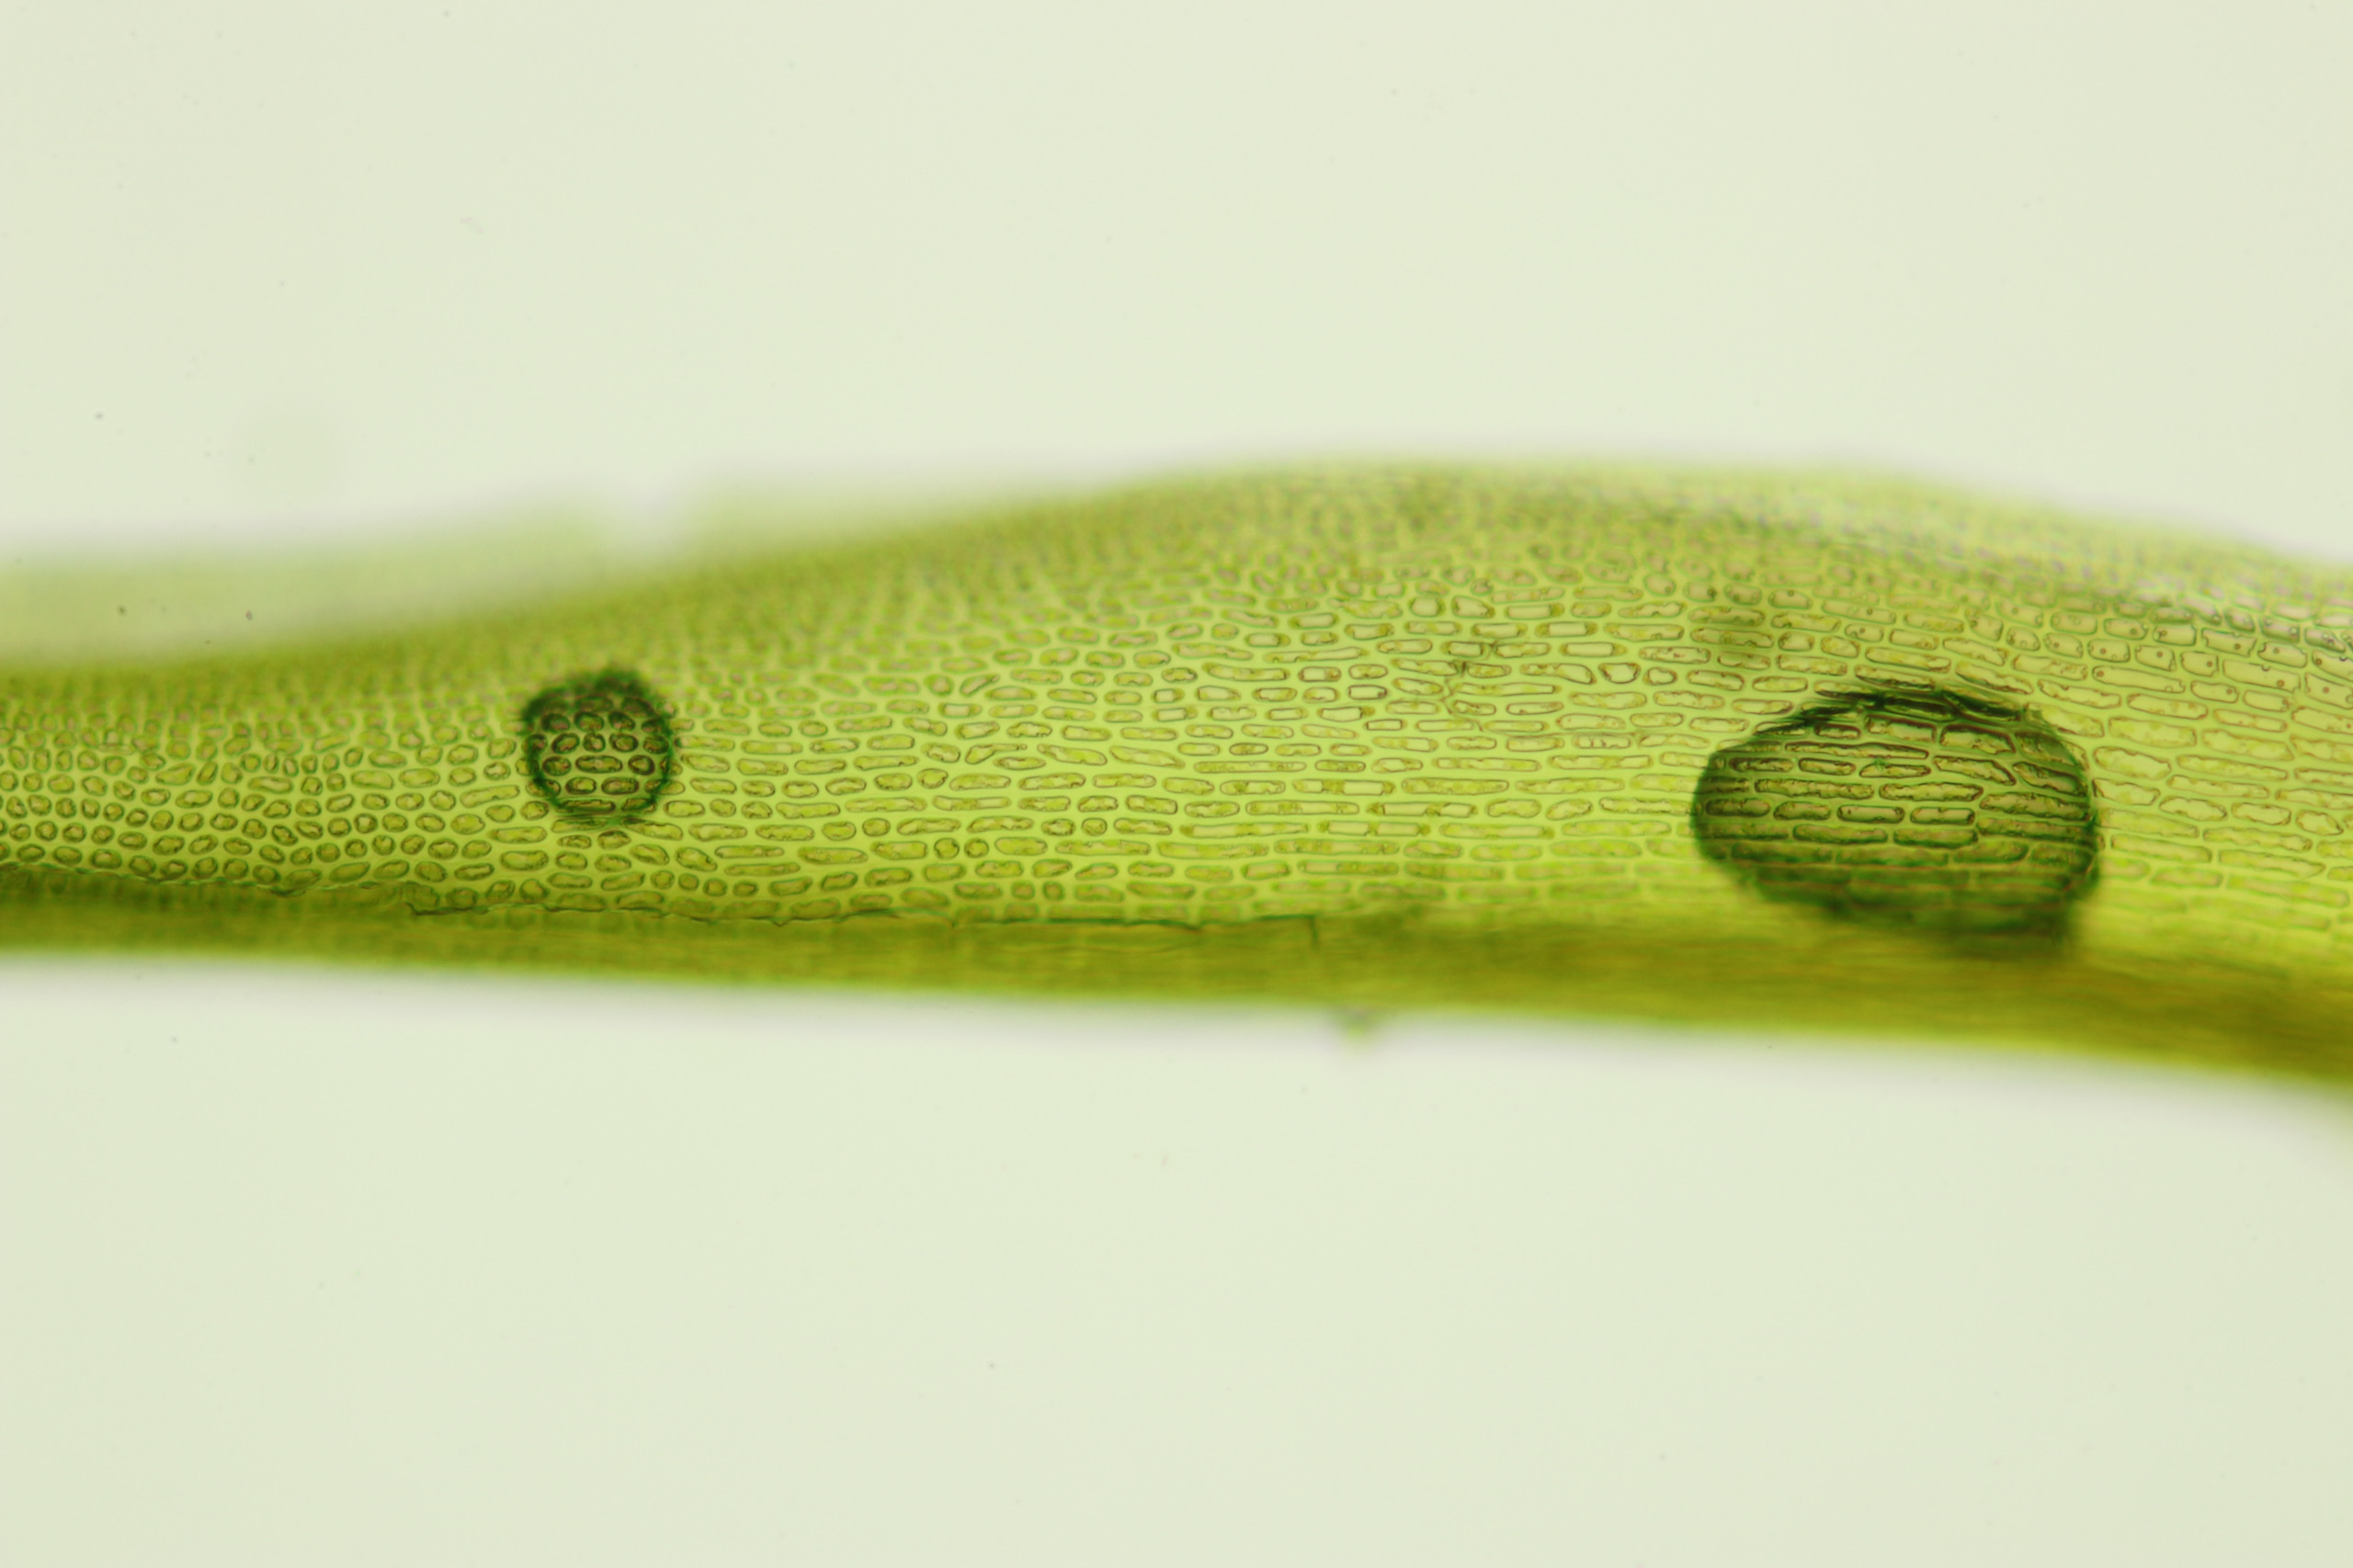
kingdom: Plantae
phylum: Bryophyta
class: Bryopsida
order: Scouleriales
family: Flexitrichaceae
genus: Flexitrichum
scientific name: Flexitrichum flexicaule
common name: Kalk-hårtand
